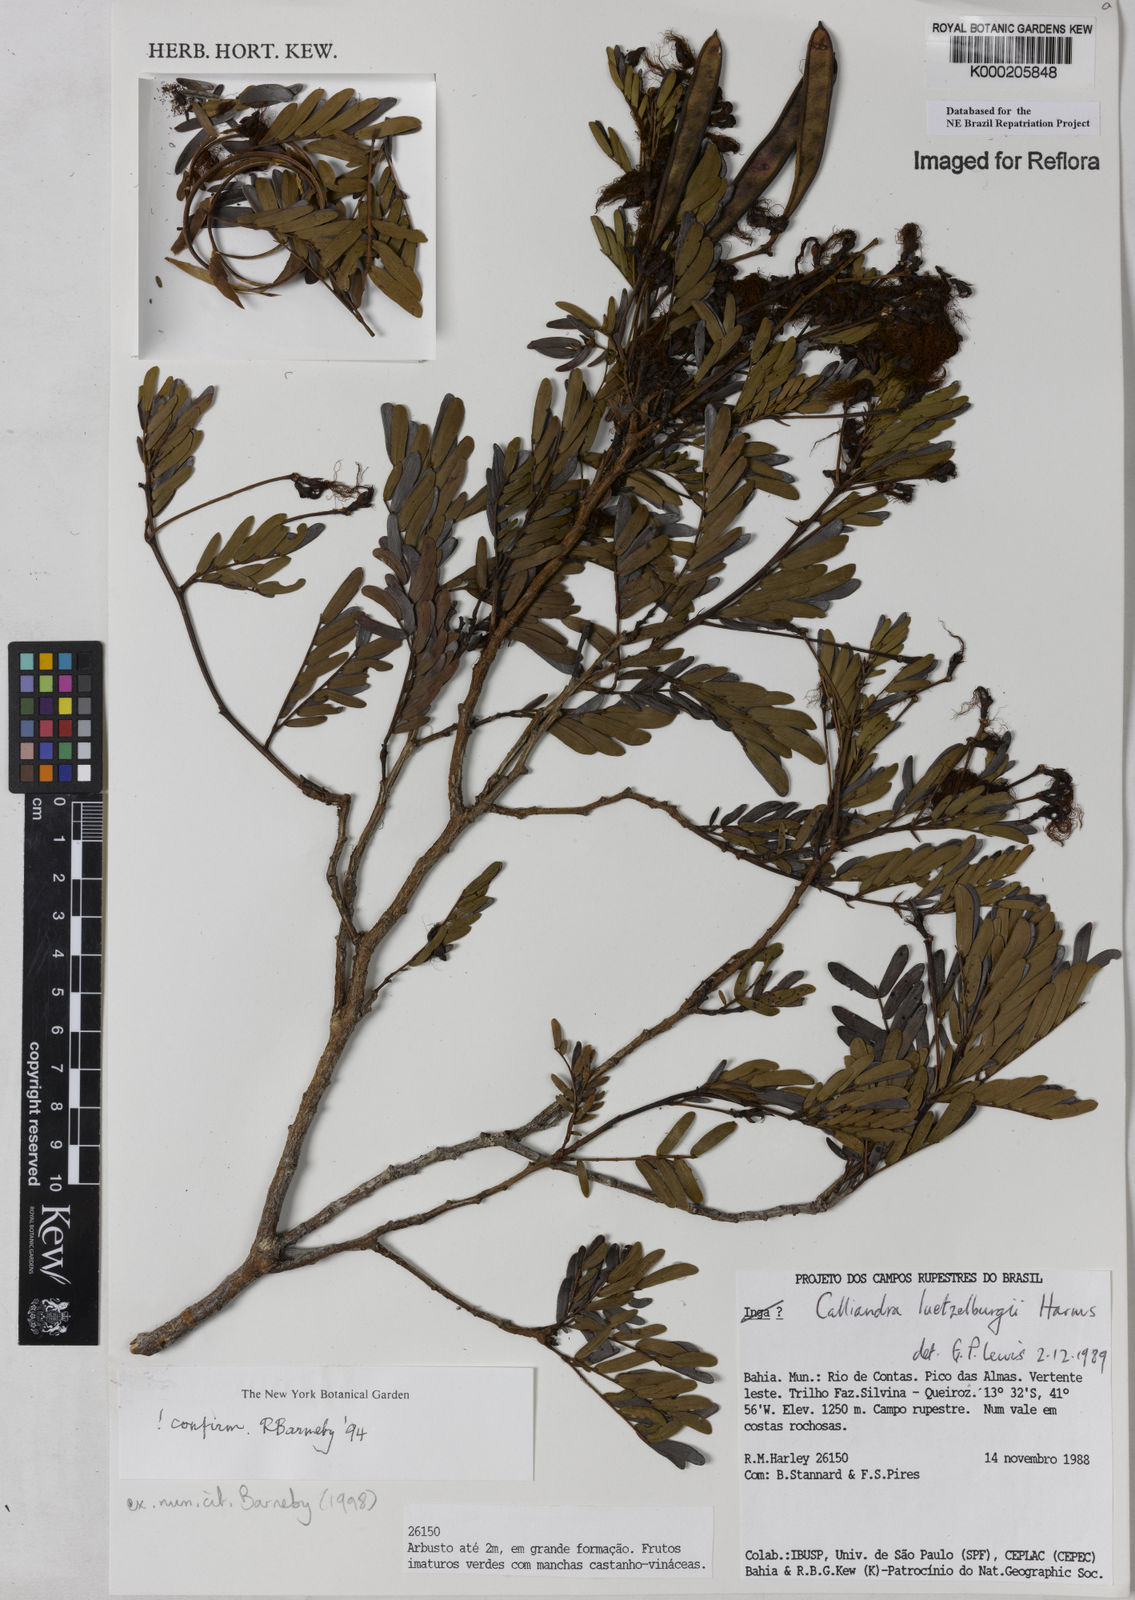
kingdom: Plantae
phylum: Tracheophyta
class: Magnoliopsida
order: Fabales
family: Fabaceae
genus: Calliandra
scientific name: Calliandra luetzelburgii
